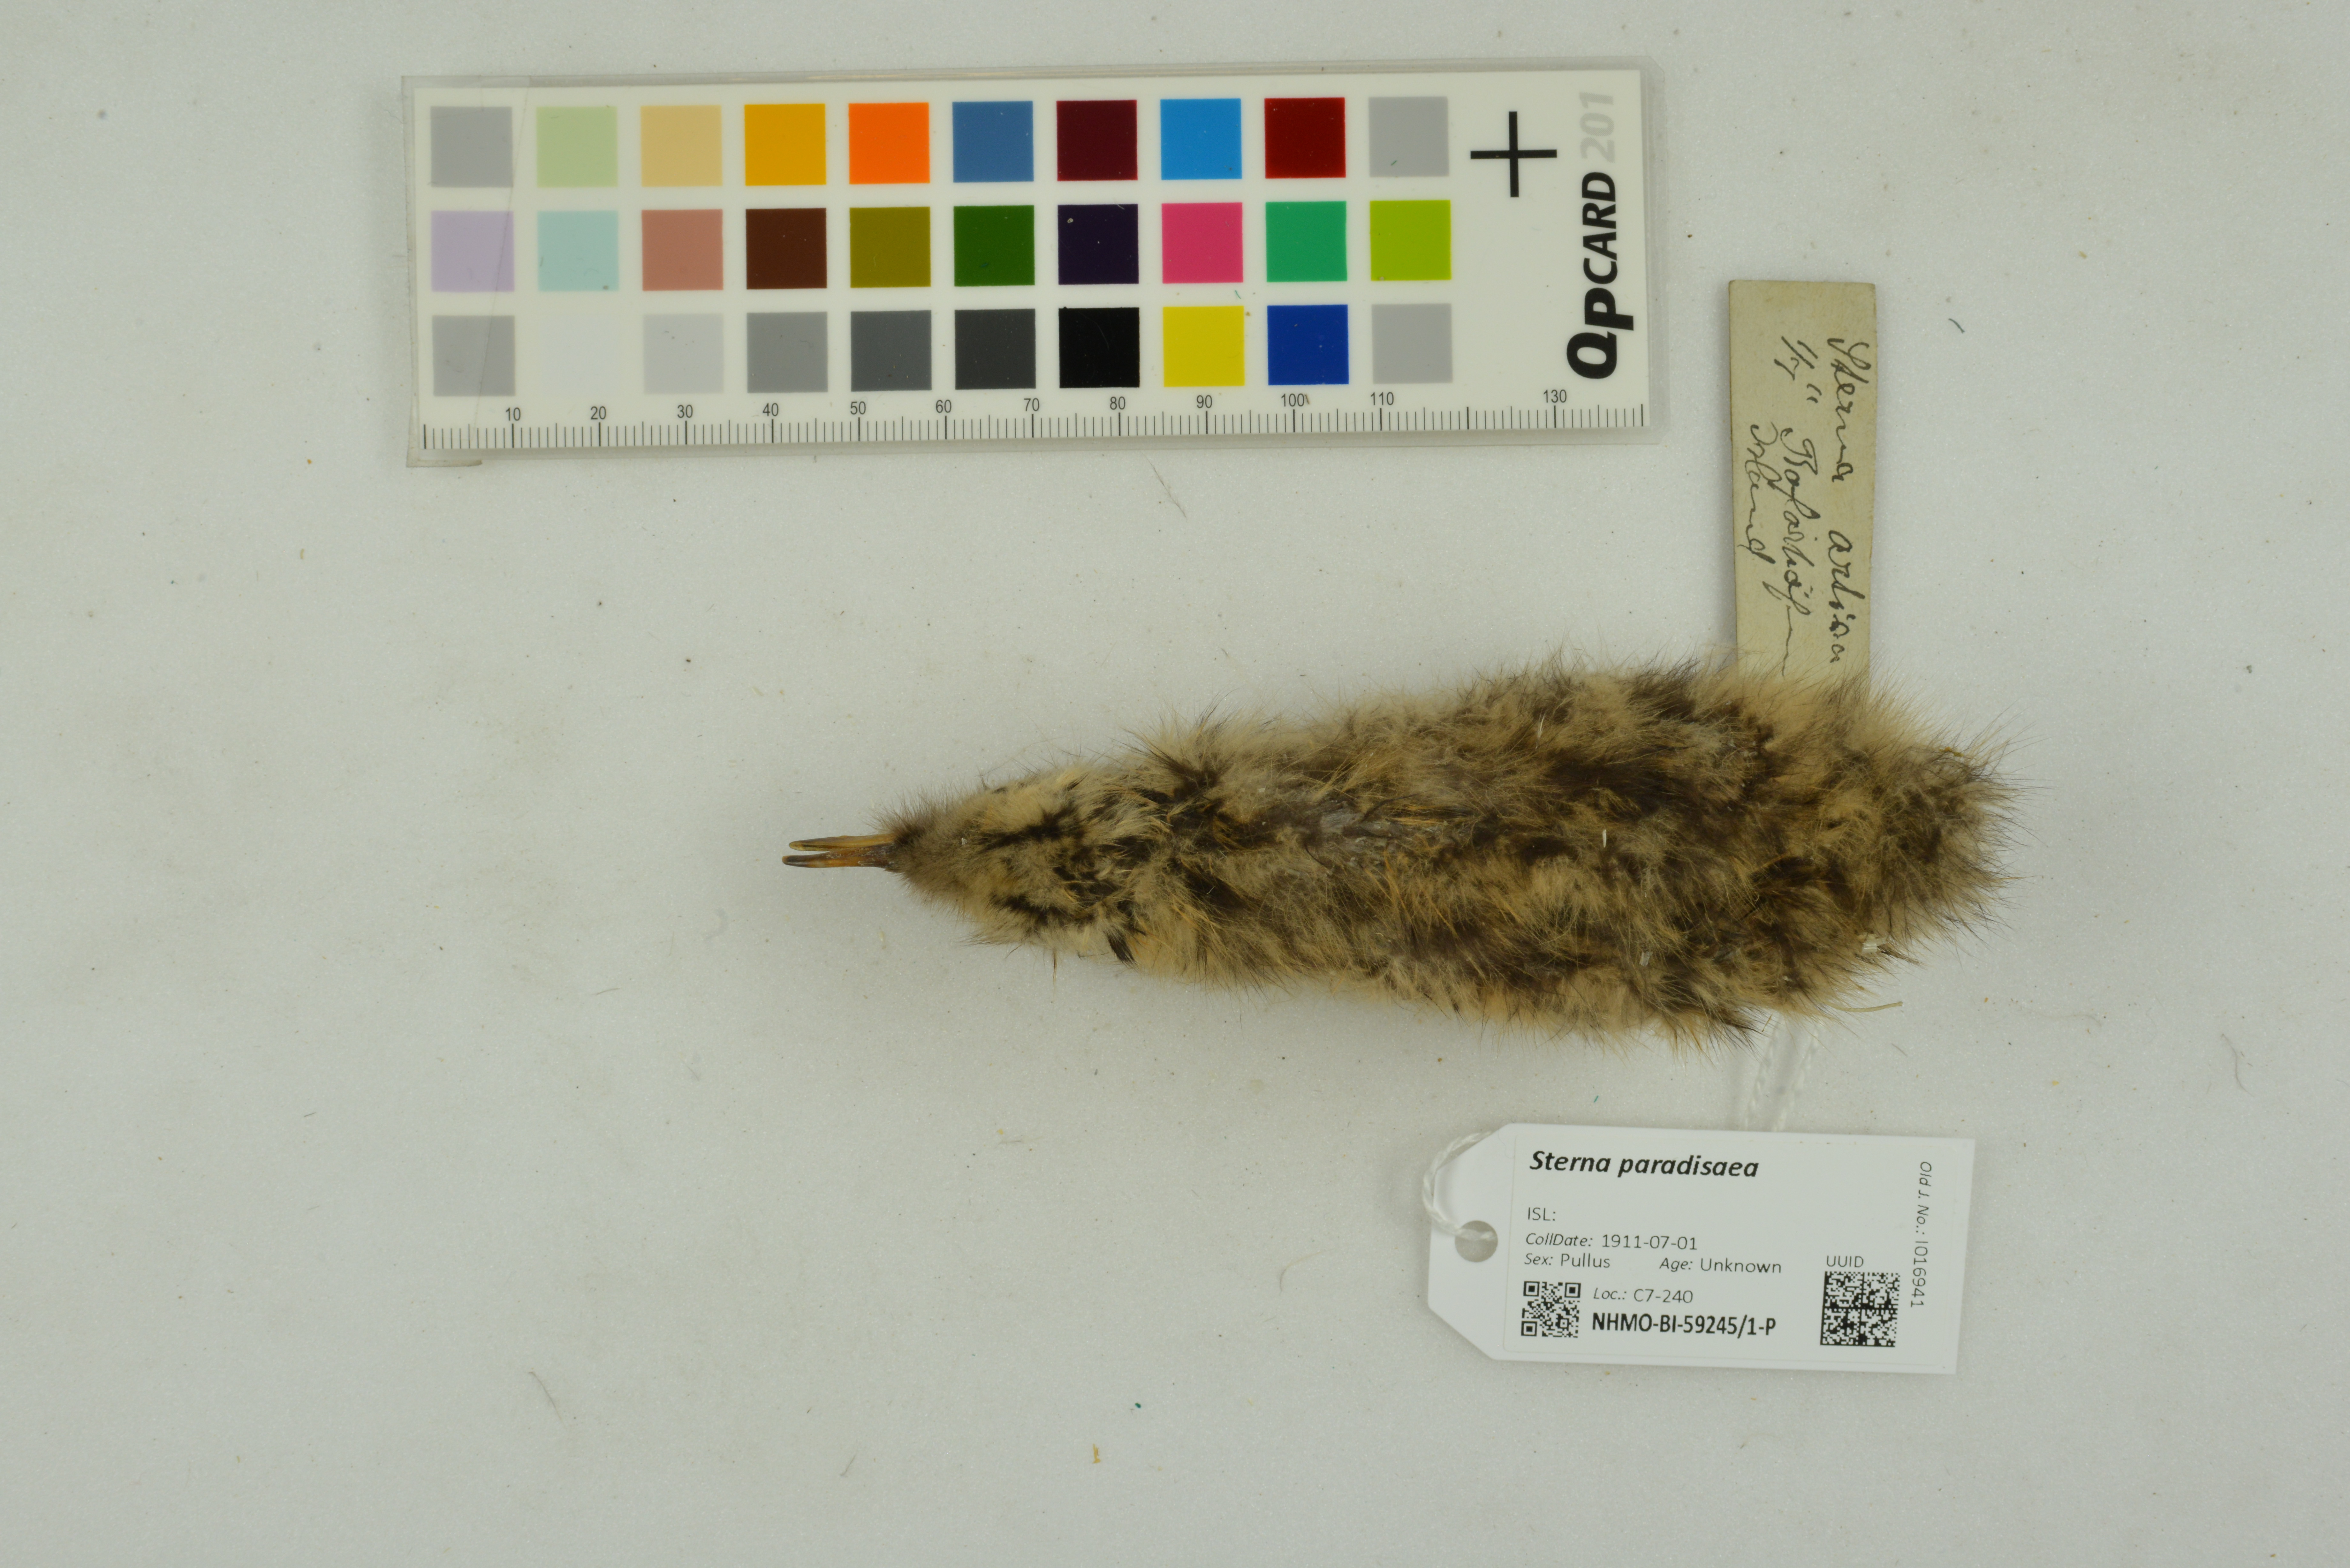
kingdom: Animalia
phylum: Chordata
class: Aves
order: Charadriiformes
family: Laridae
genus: Sterna
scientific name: Sterna paradisaea
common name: Arctic tern
